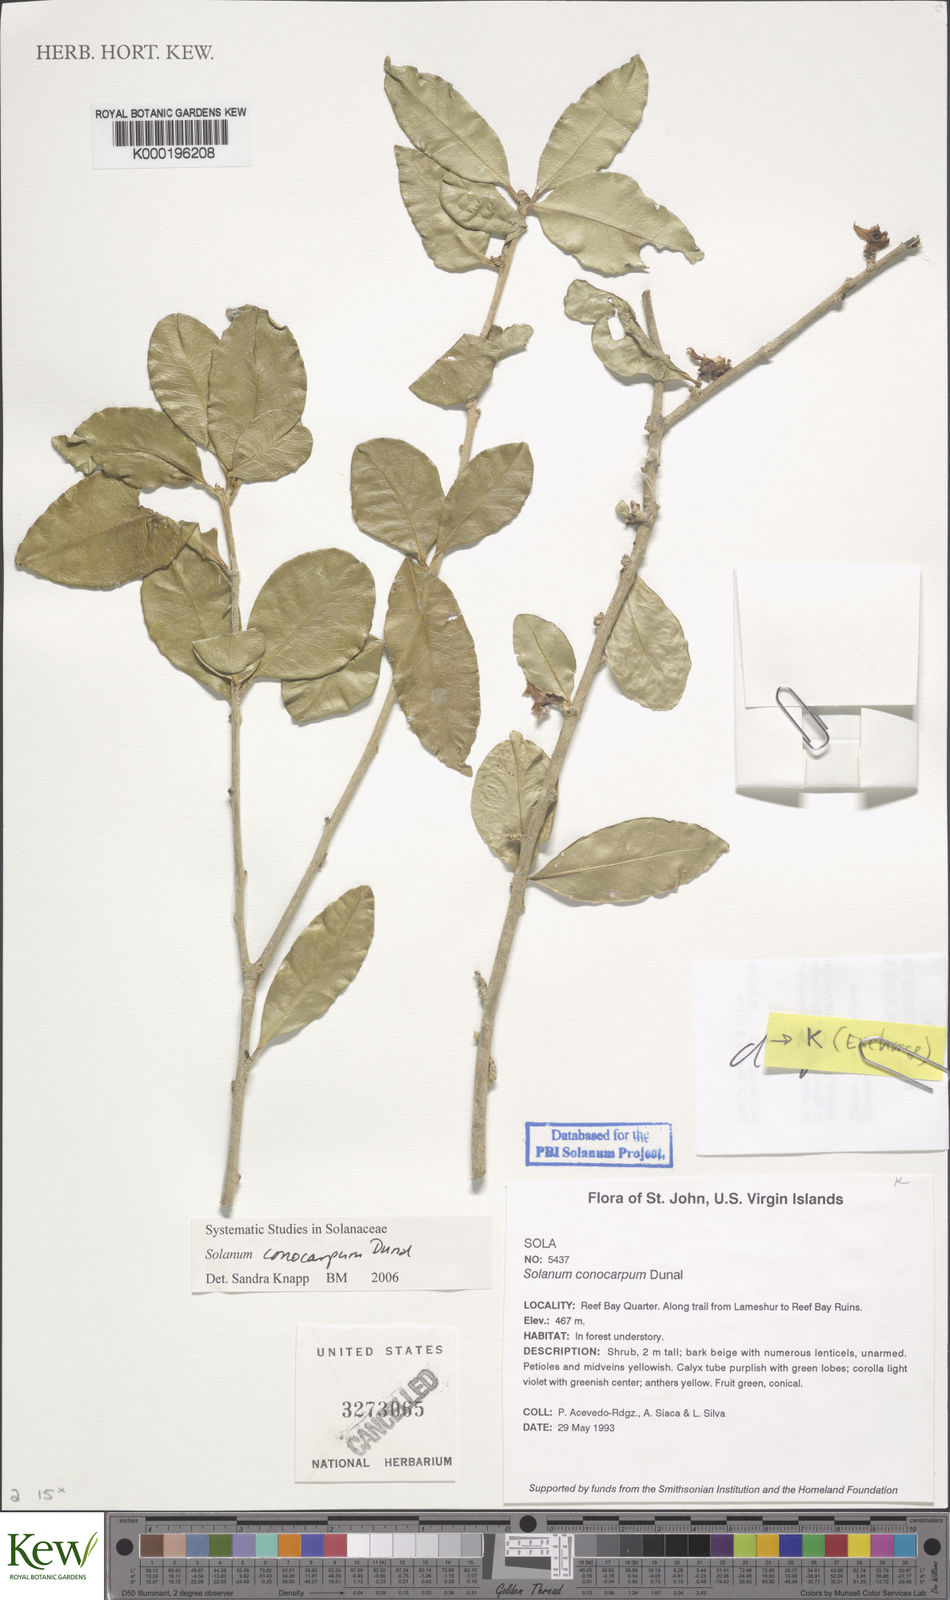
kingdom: Plantae
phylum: Tracheophyta
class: Magnoliopsida
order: Solanales
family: Solanaceae
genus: Solanum
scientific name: Solanum conocarpum
